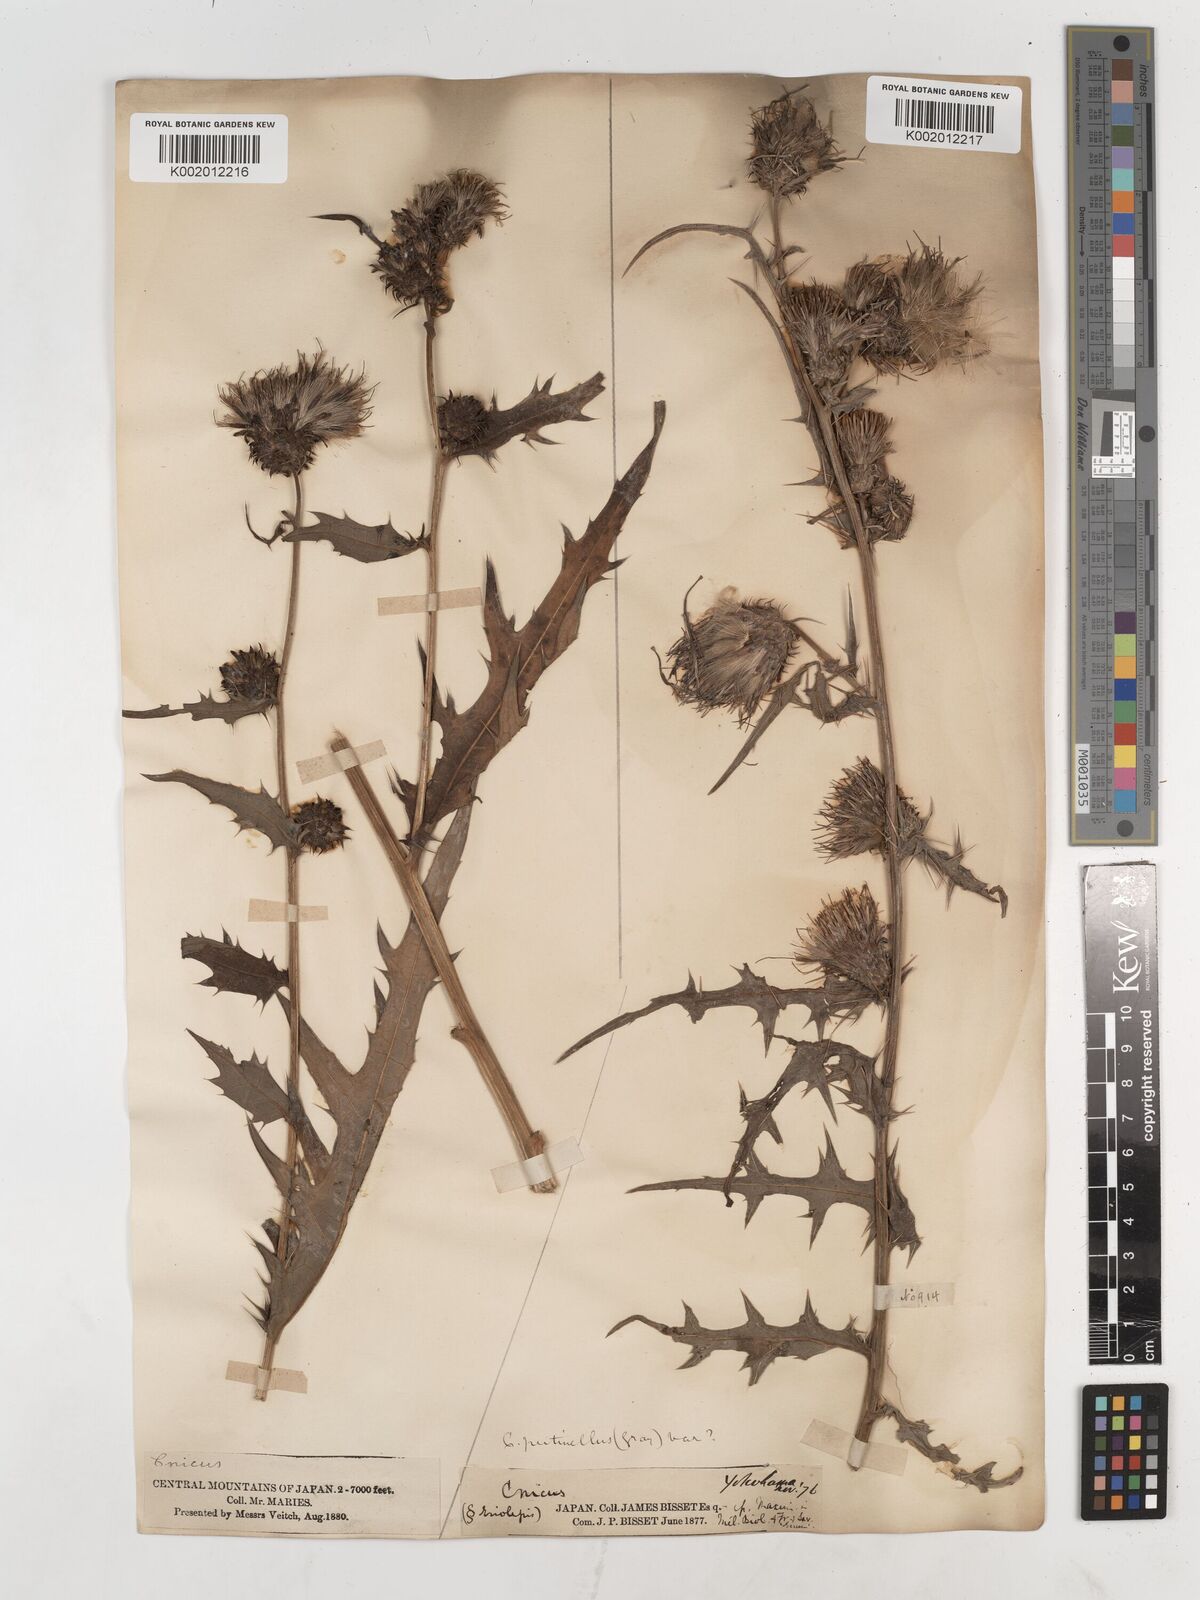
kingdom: Plantae
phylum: Tracheophyta
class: Magnoliopsida
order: Asterales
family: Asteraceae
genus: Cirsium
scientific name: Cirsium pectinellum
